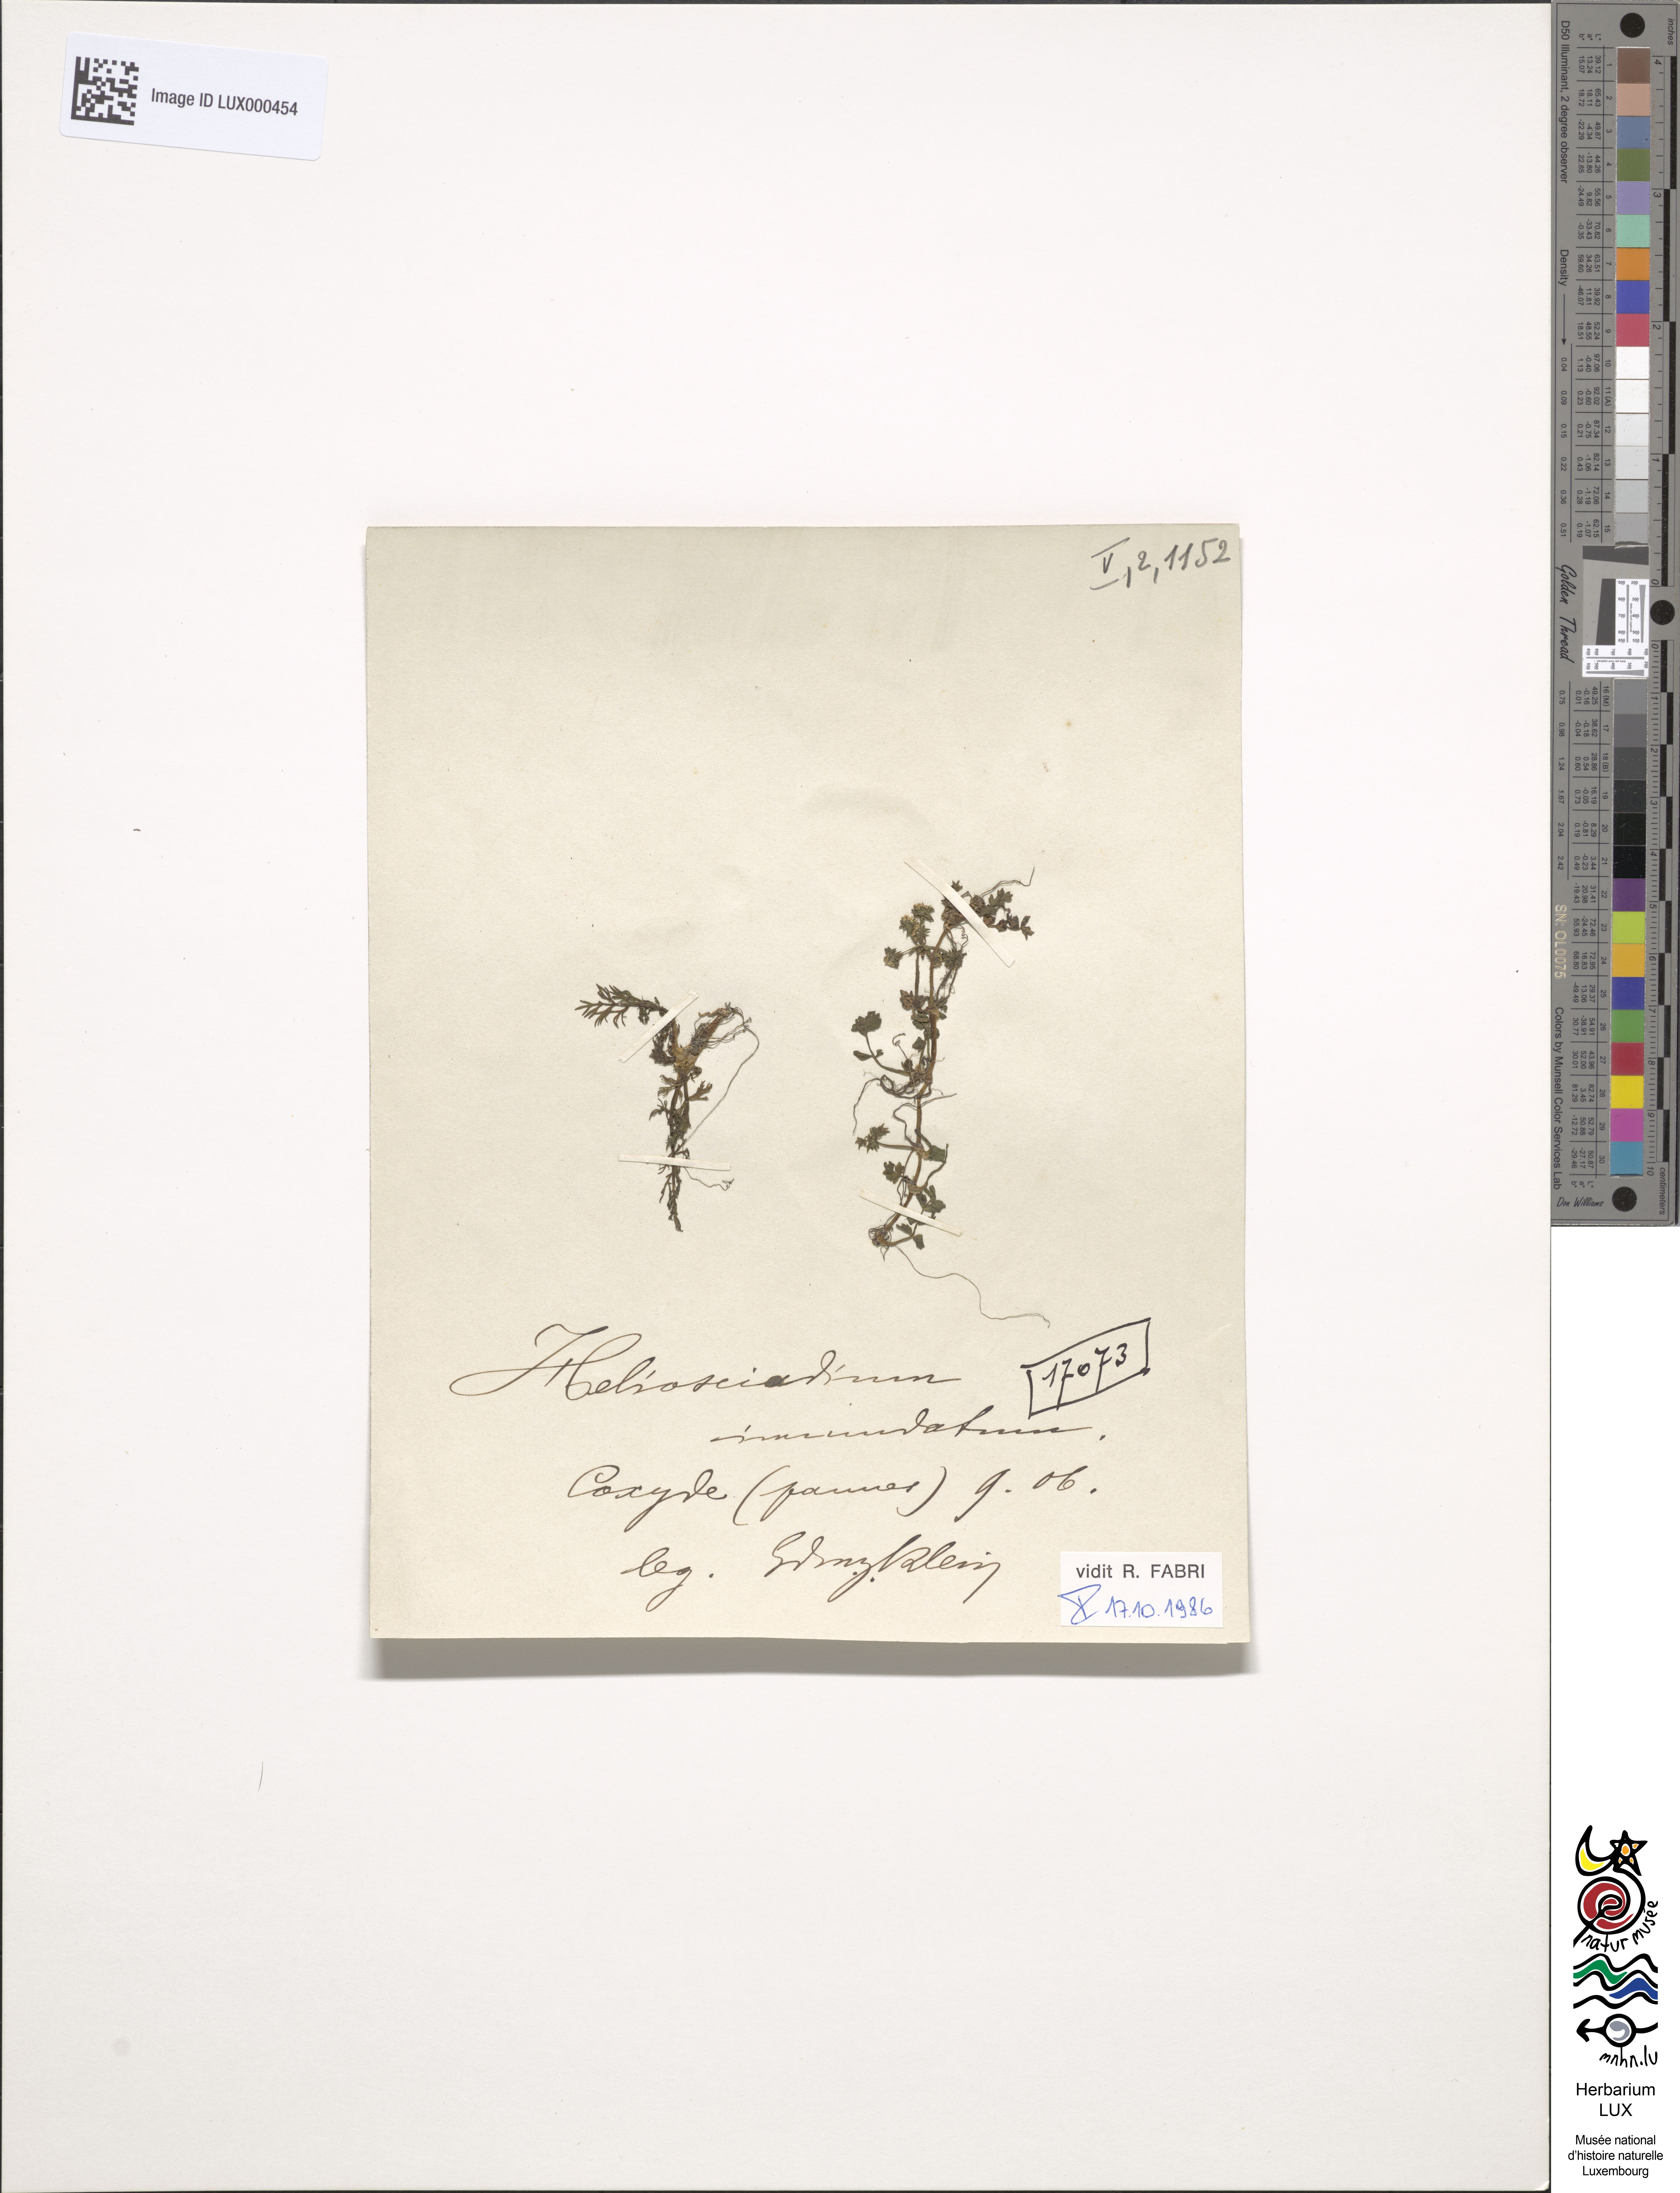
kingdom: Plantae
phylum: Tracheophyta
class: Magnoliopsida
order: Apiales
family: Apiaceae
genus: Helosciadium
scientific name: Helosciadium inundatum
